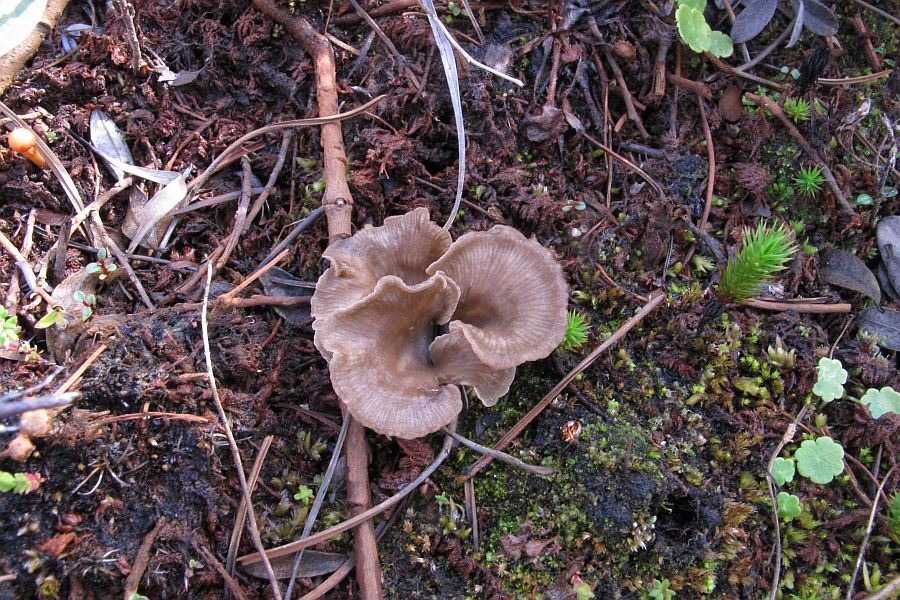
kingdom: Fungi
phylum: Basidiomycota
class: Agaricomycetes
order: Agaricales
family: Hygrophoraceae
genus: Arrhenia
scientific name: Arrhenia acerosa
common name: muslinge-fontænehat
